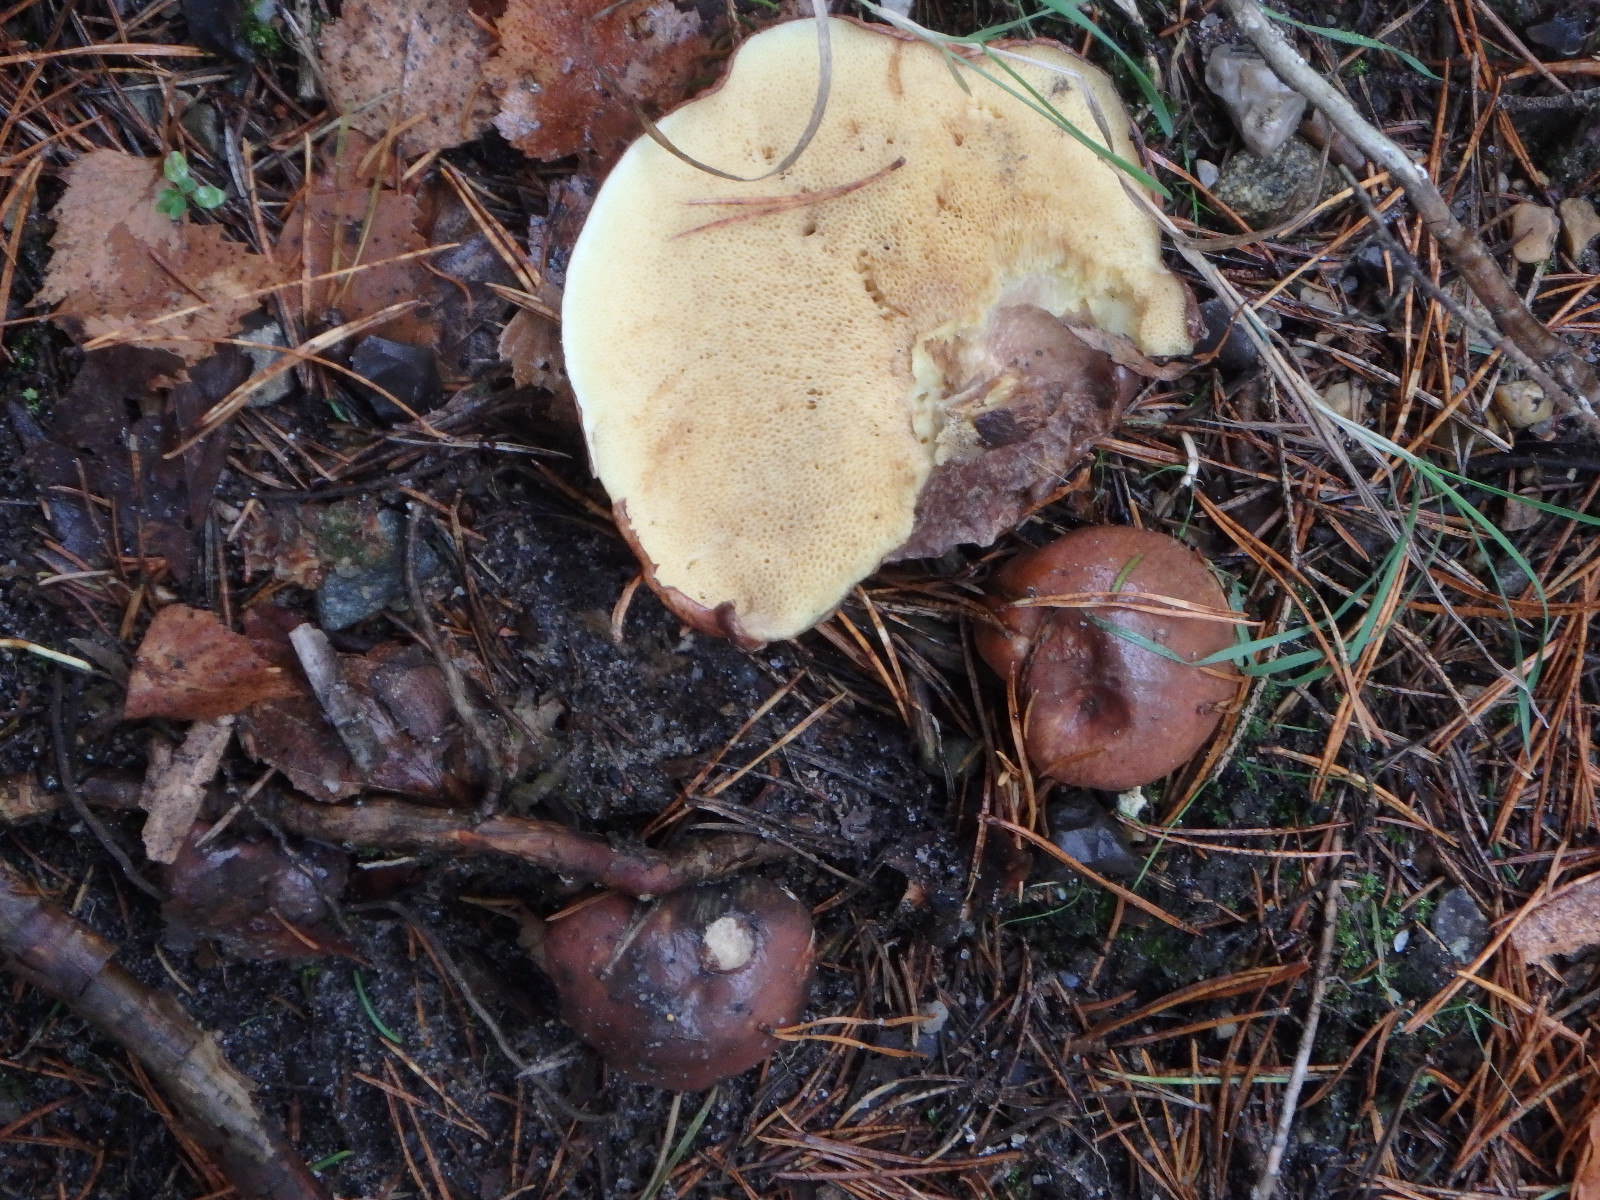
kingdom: Fungi
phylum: Basidiomycota
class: Agaricomycetes
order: Boletales
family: Suillaceae
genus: Suillus
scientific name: Suillus luteus
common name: brungul slimrørhat
